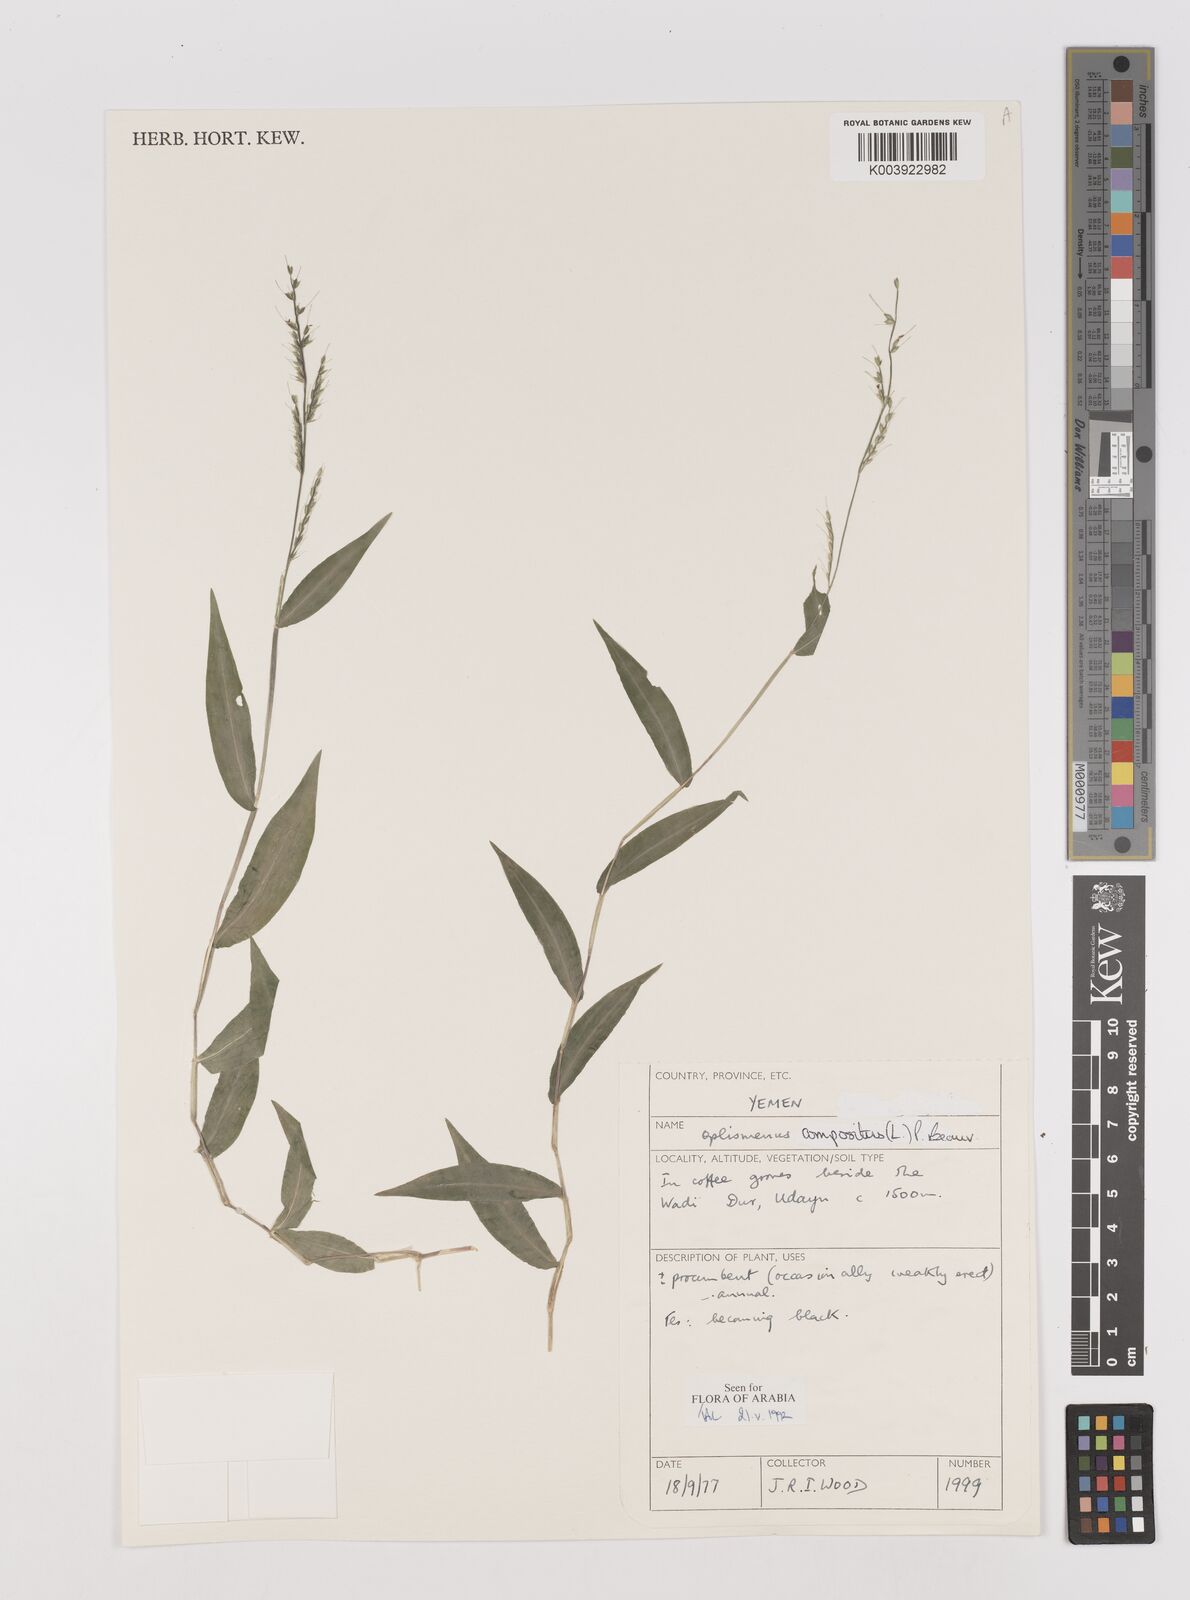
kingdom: Plantae
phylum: Tracheophyta
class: Liliopsida
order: Poales
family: Poaceae
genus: Oplismenus
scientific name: Oplismenus compositus
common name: Running mountain grass
